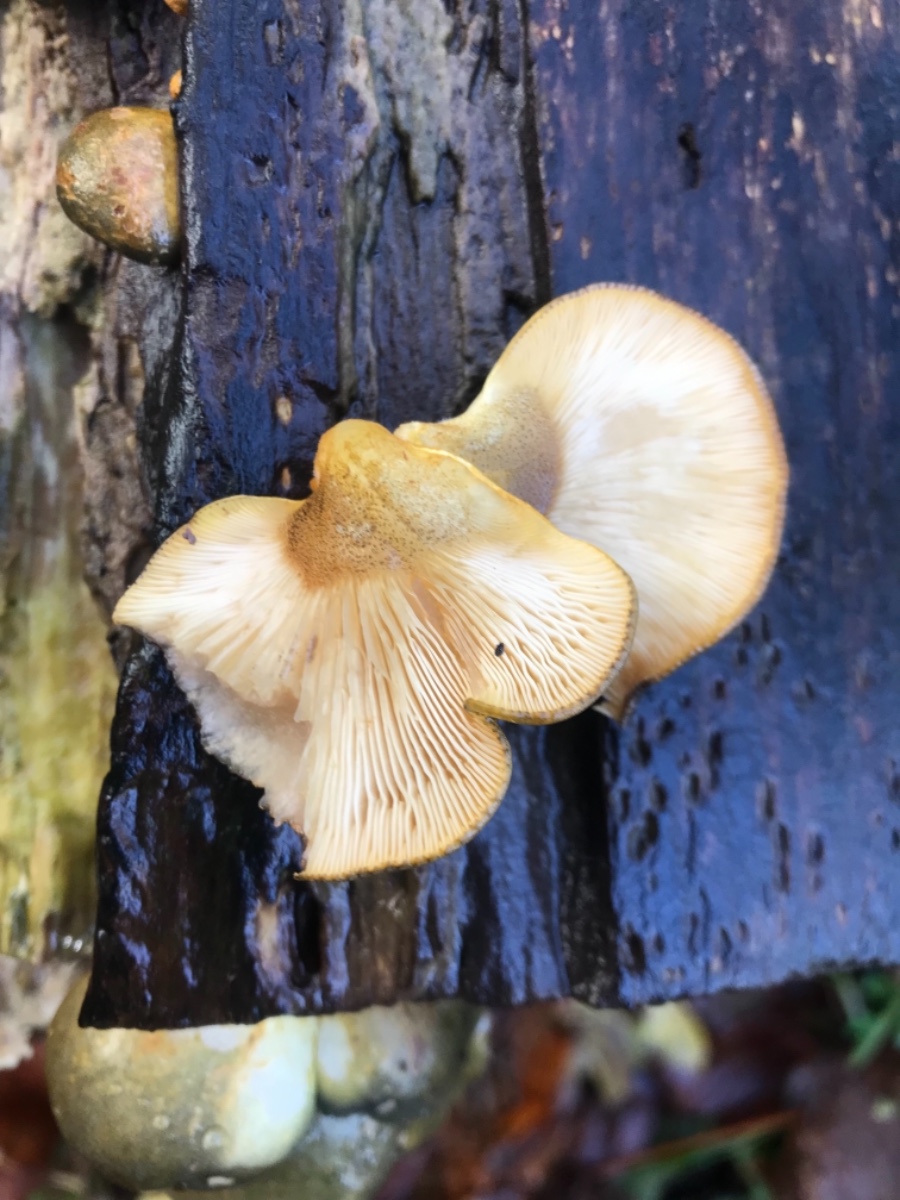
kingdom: Fungi
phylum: Basidiomycota
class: Agaricomycetes
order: Agaricales
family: Sarcomyxaceae
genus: Sarcomyxa
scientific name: Sarcomyxa serotina
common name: gummihat
